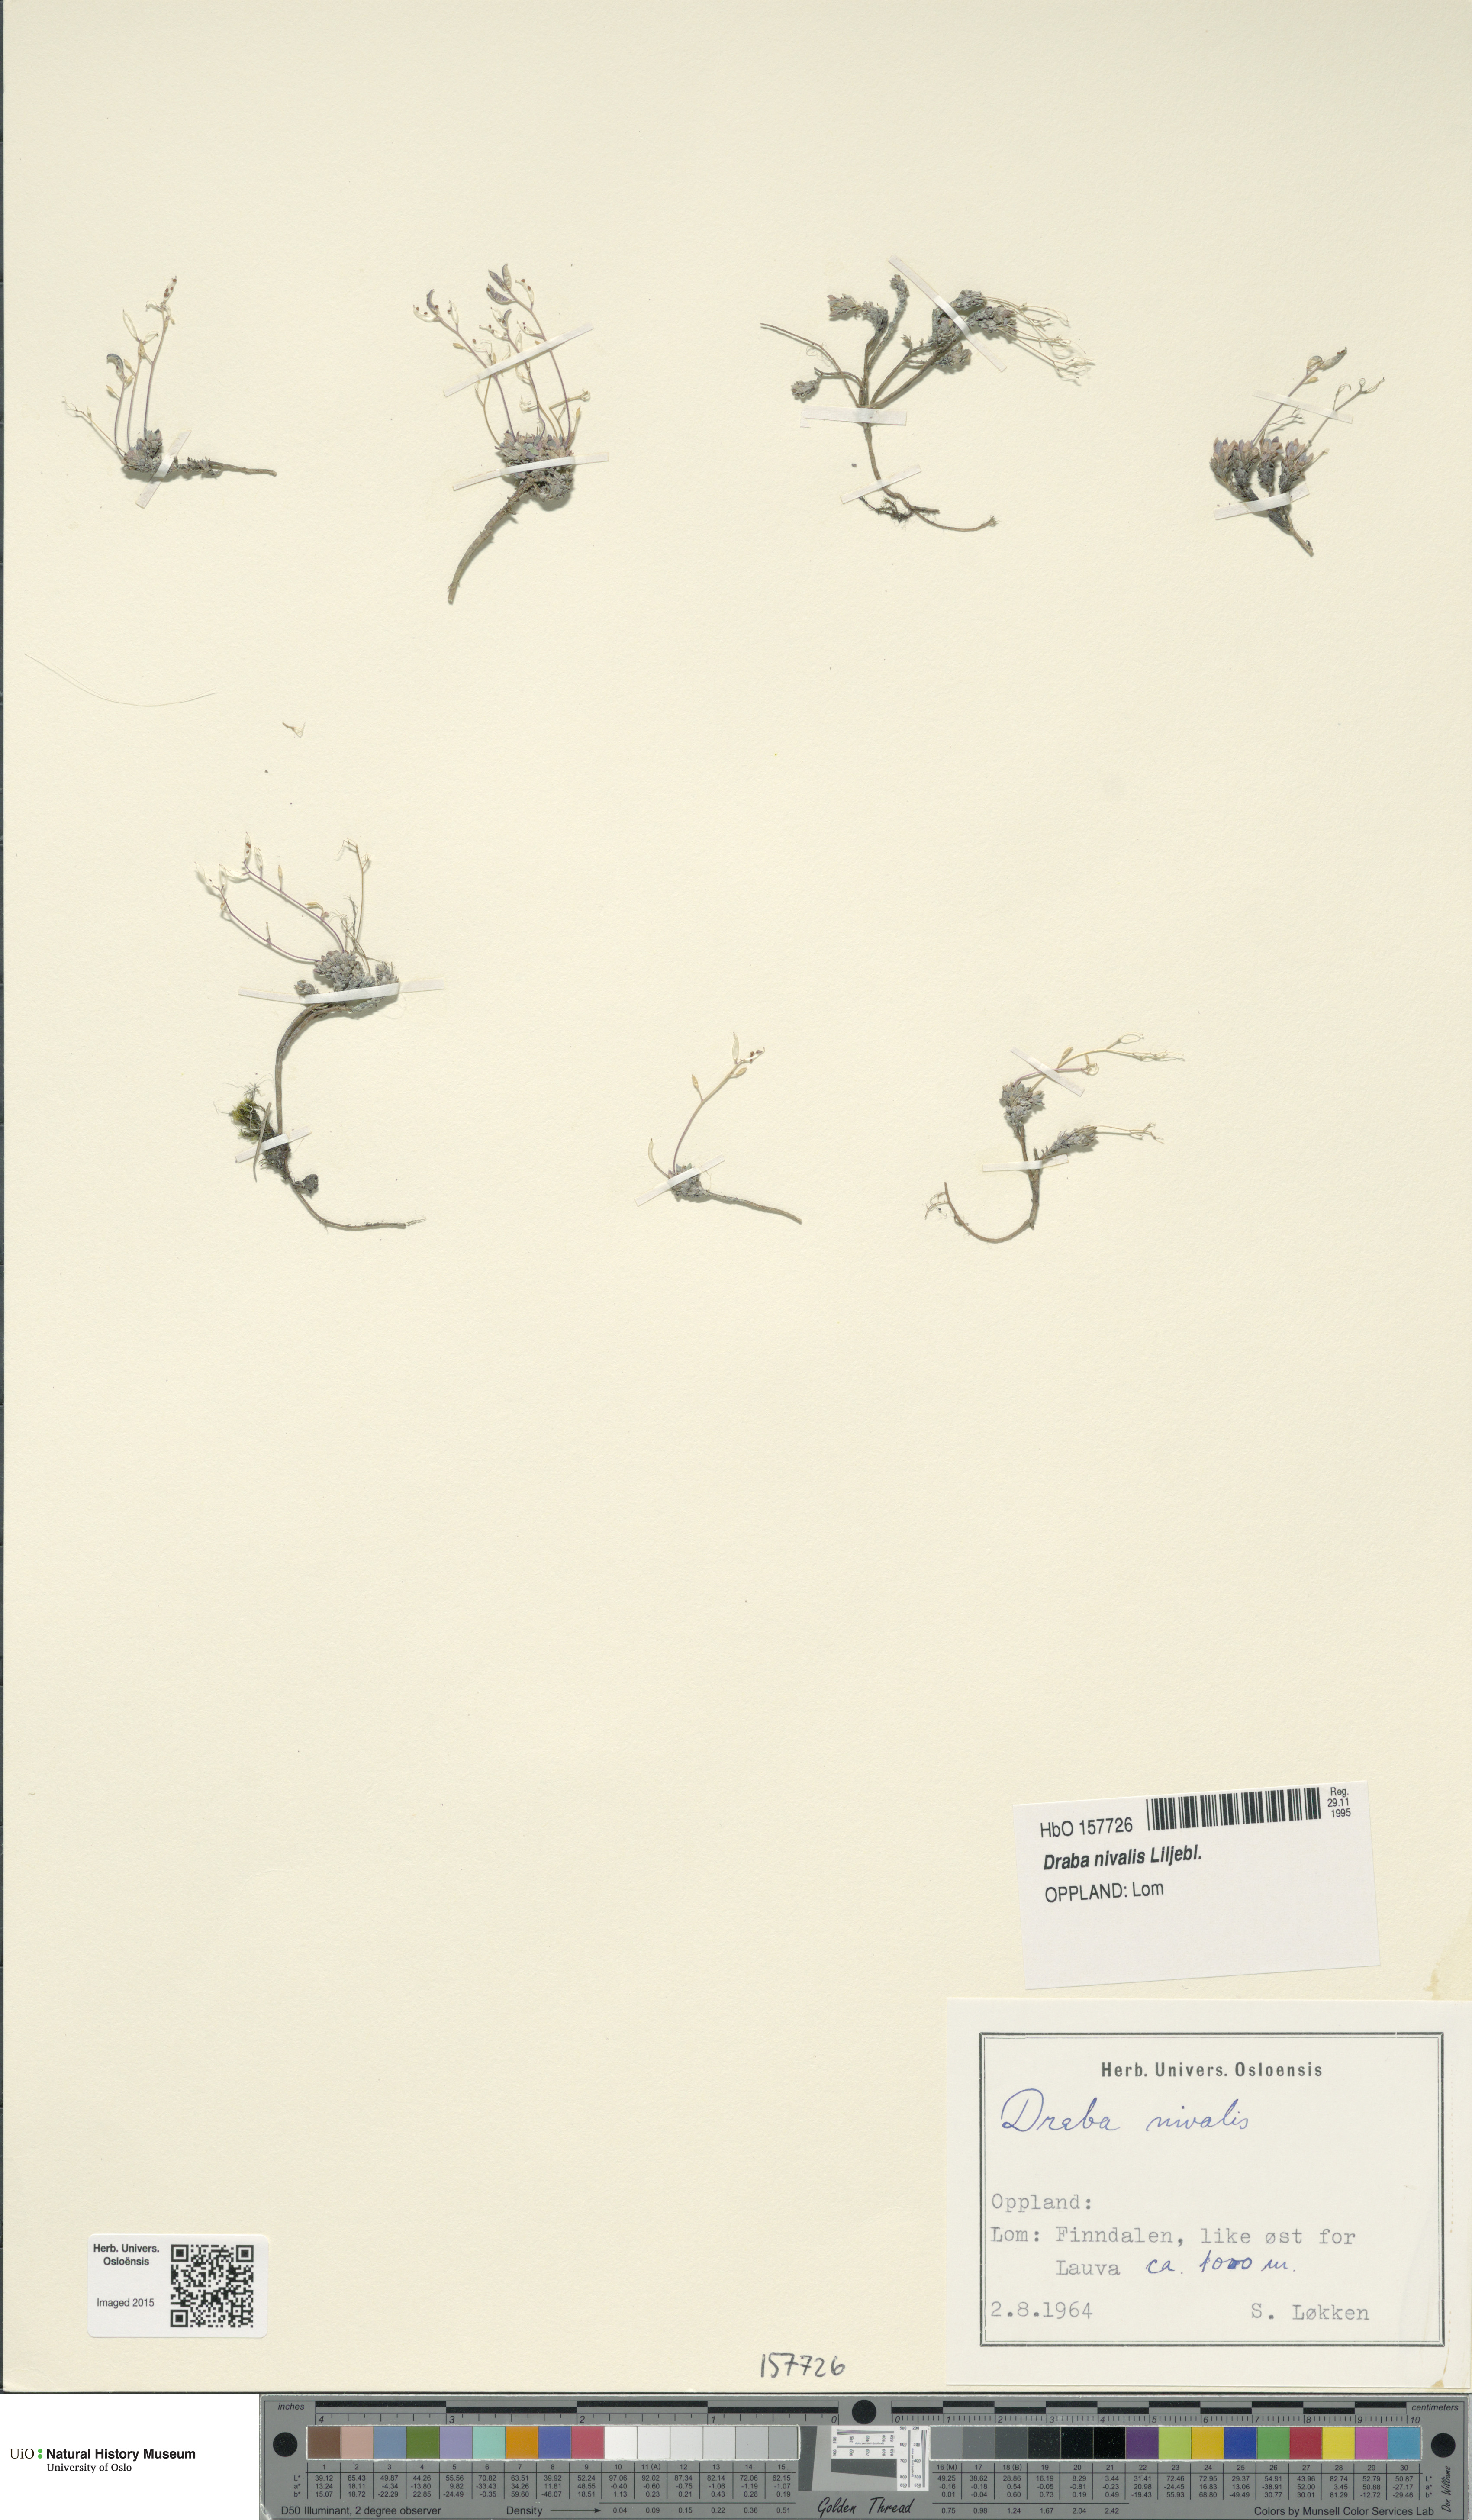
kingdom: Plantae
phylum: Tracheophyta
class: Magnoliopsida
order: Brassicales
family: Brassicaceae
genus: Draba
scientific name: Draba nivalis
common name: Snow draba
